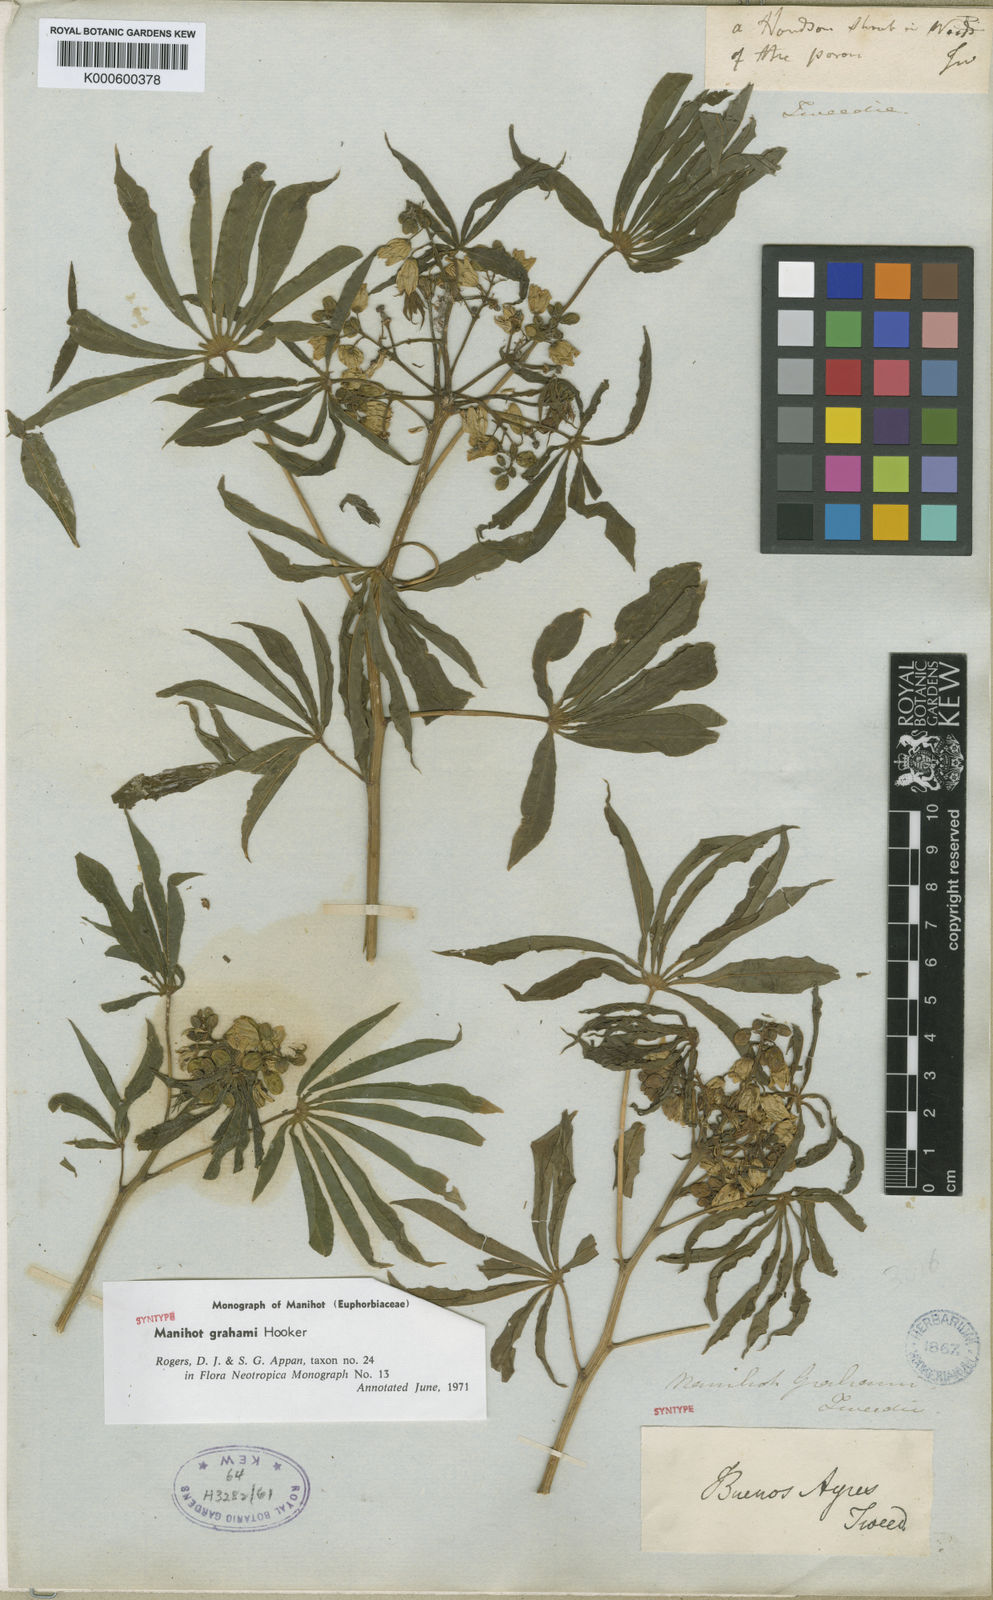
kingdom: Plantae
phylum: Tracheophyta
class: Magnoliopsida
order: Malpighiales
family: Euphorbiaceae
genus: Manihot
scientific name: Manihot grahamii
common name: Graham's manihot
